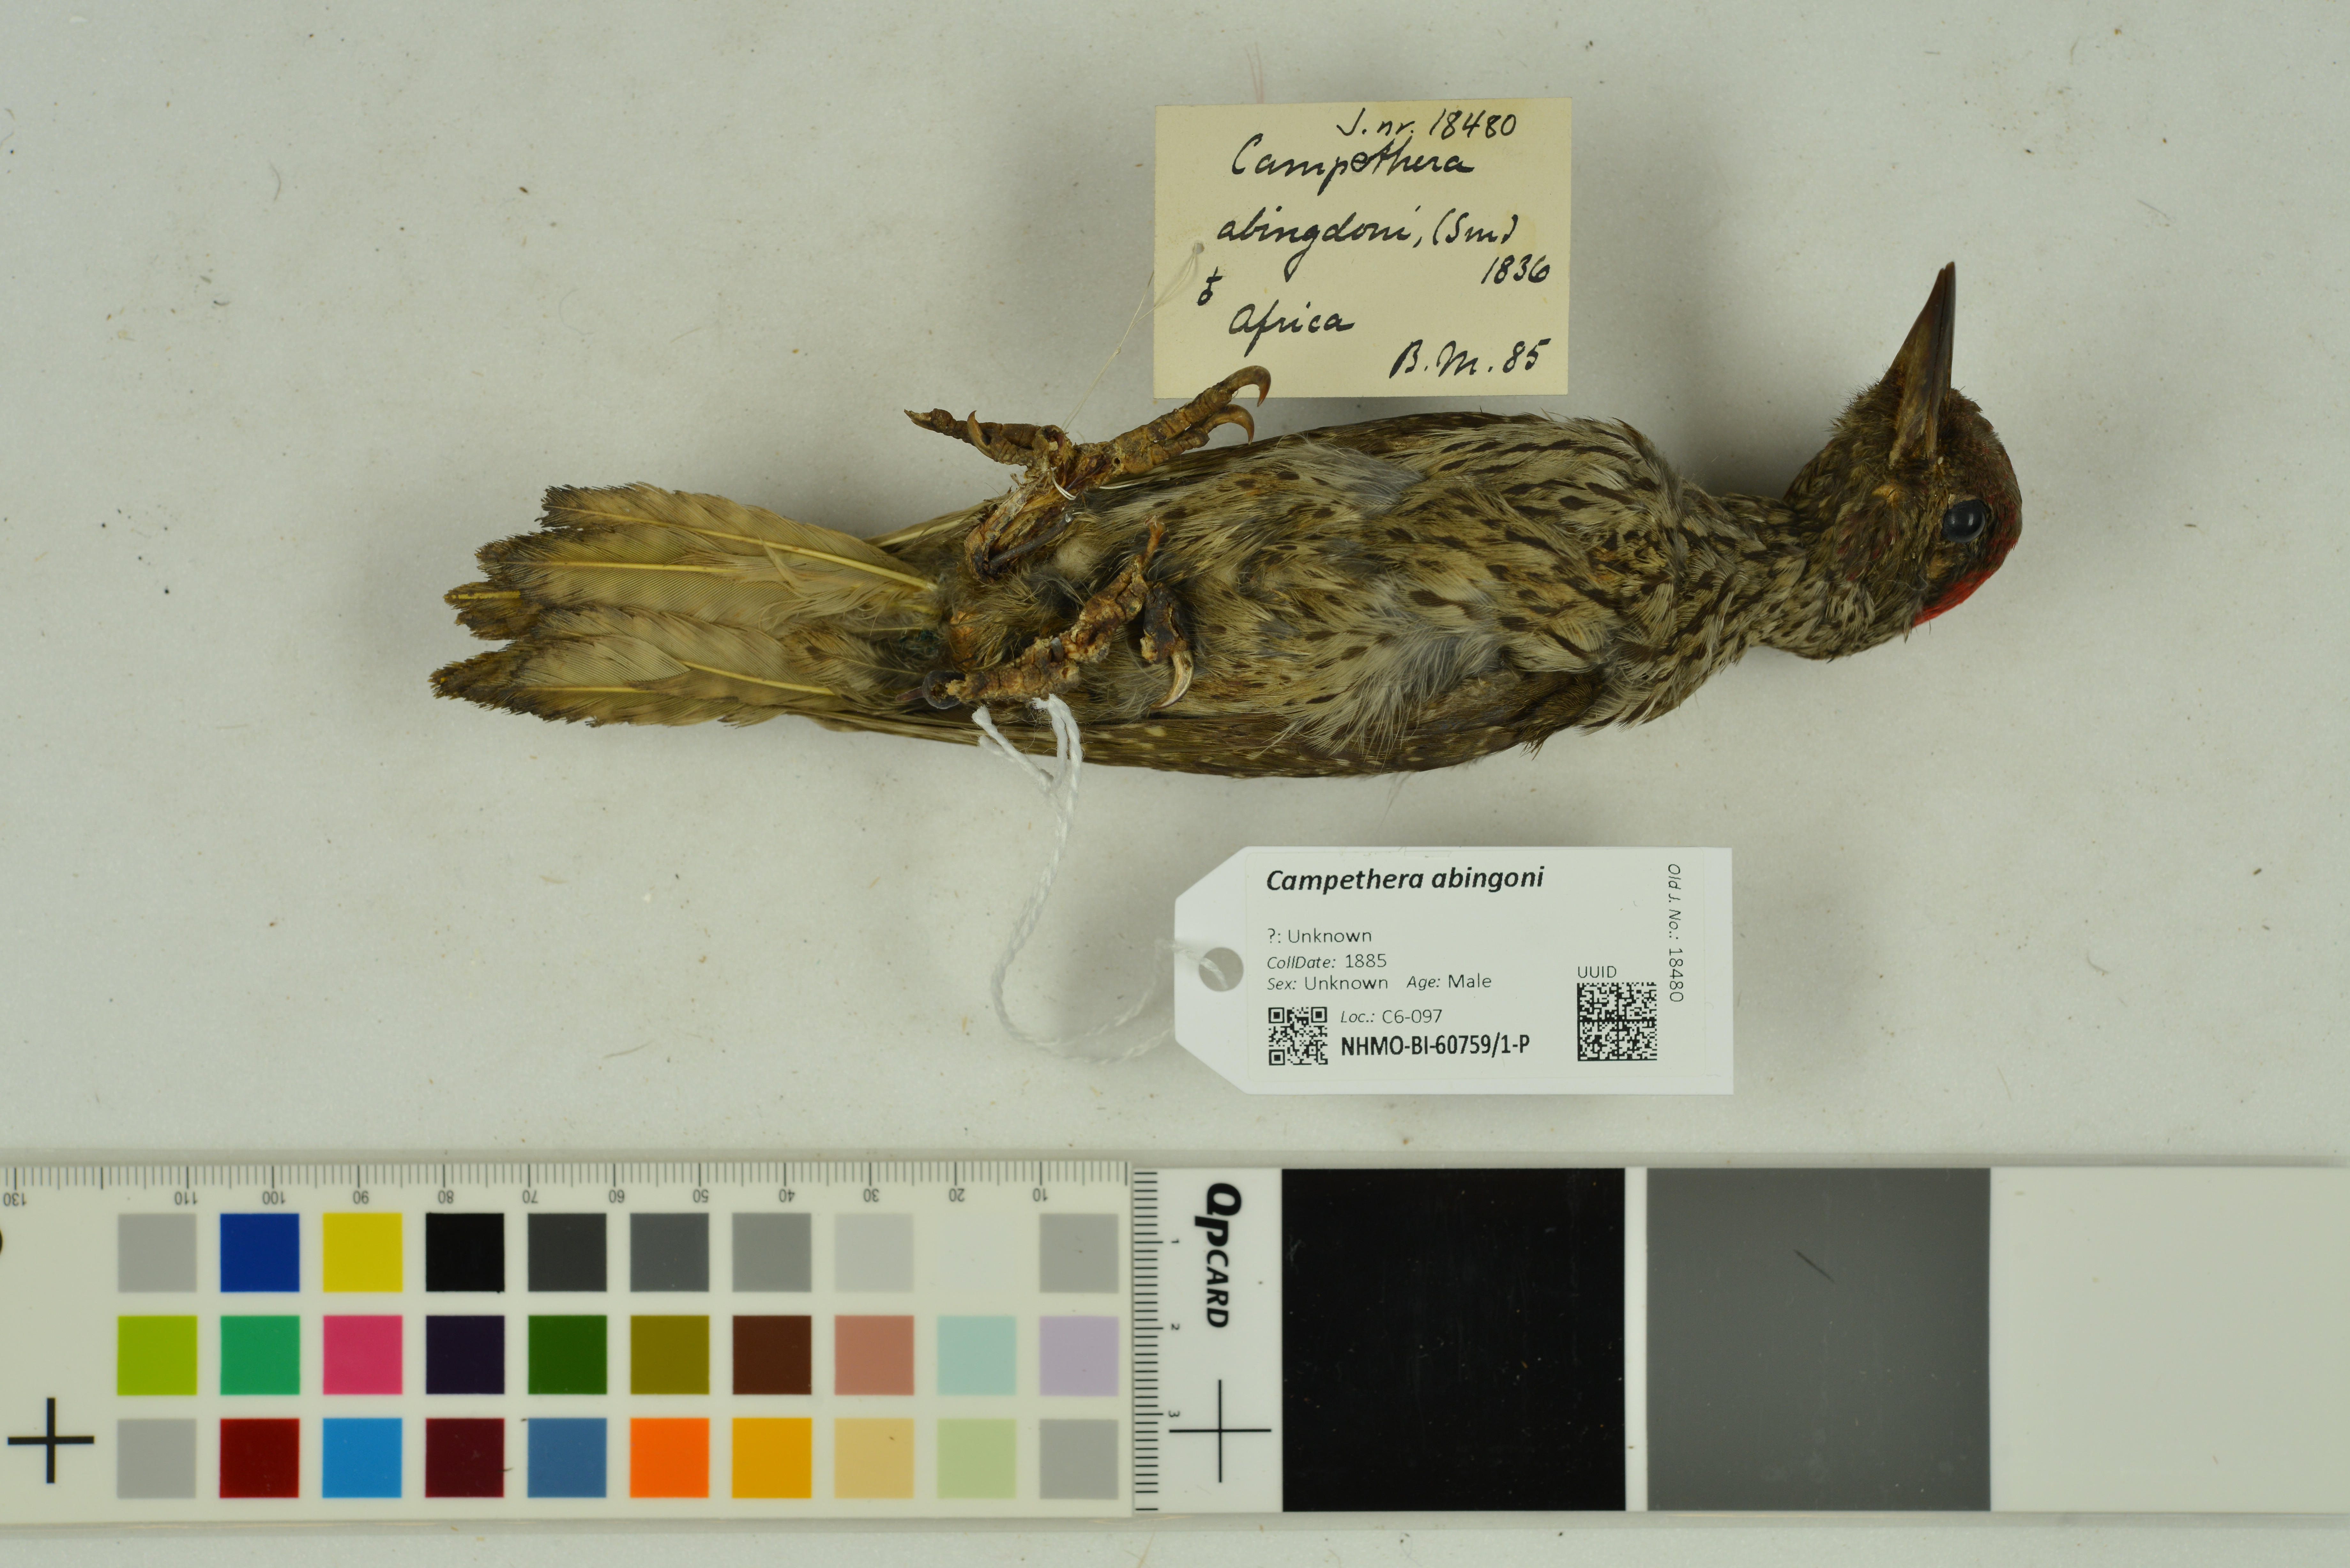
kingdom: Animalia
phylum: Chordata
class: Aves
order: Piciformes
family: Picidae
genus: Campethera
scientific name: Campethera abingoni
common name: Golden-tailed woodpecker
